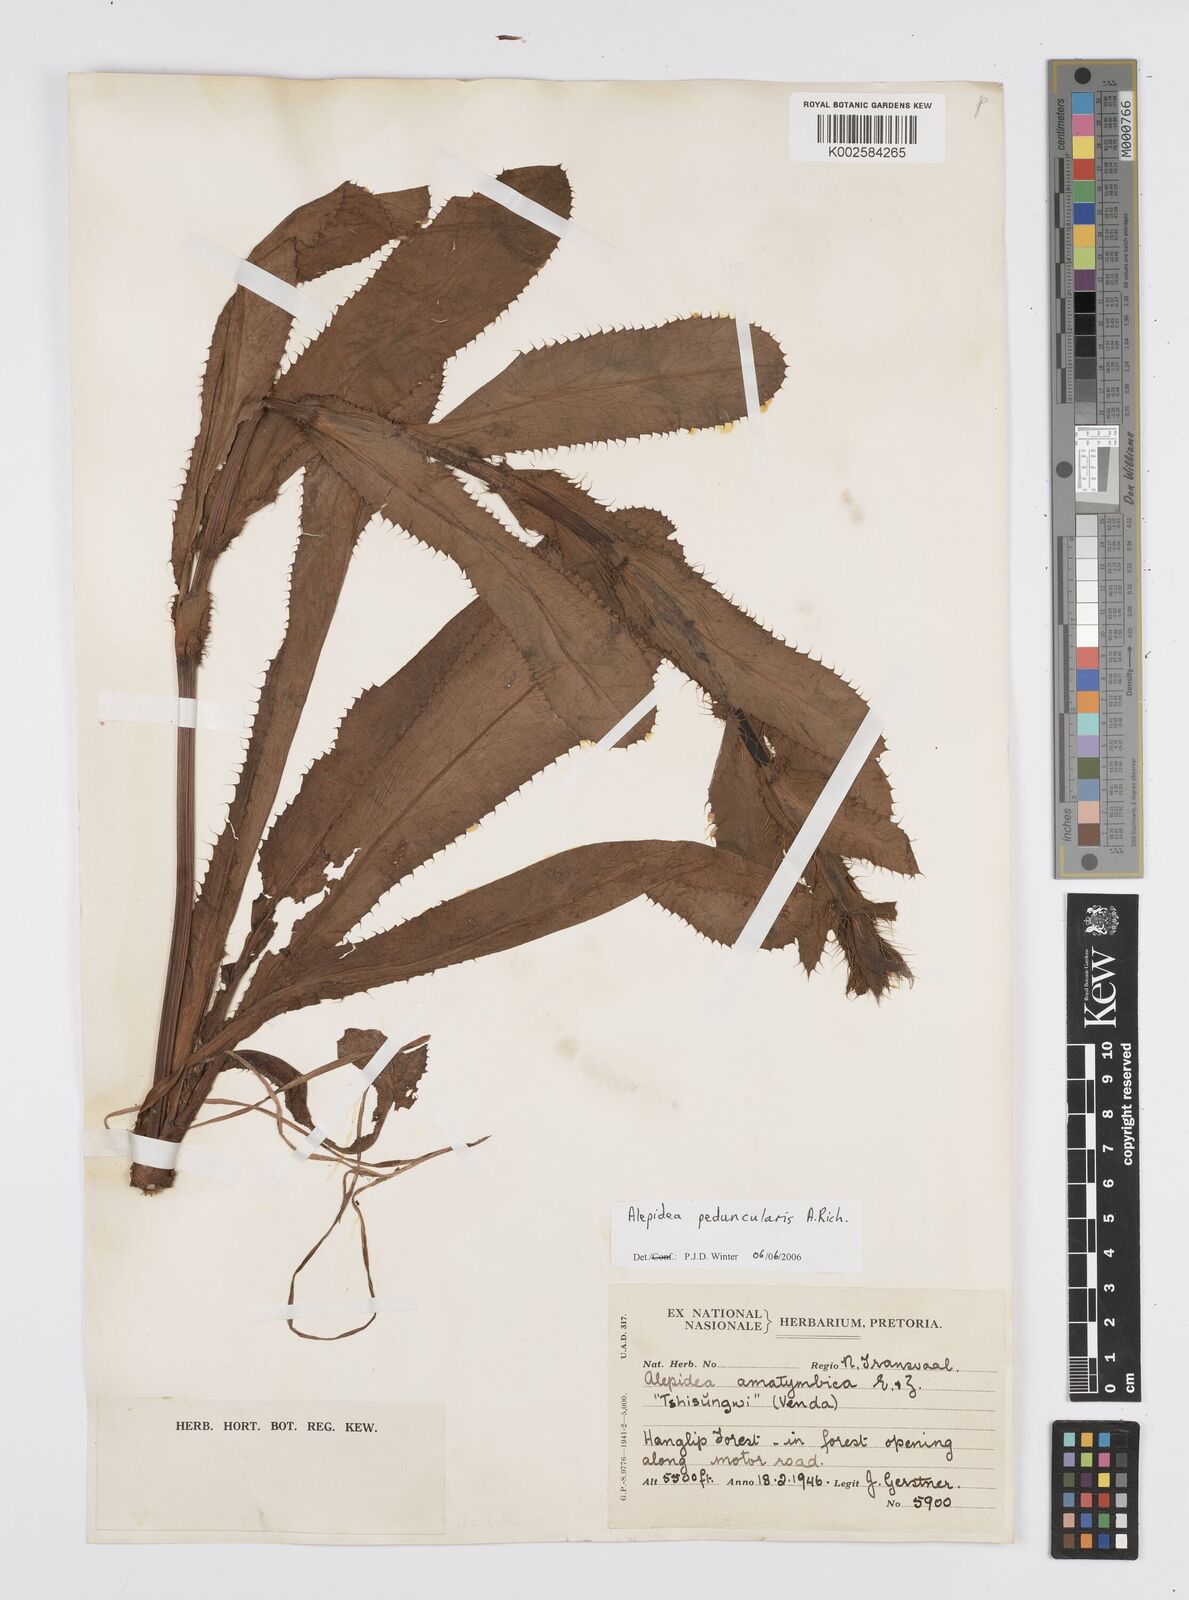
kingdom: Plantae
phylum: Tracheophyta
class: Magnoliopsida
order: Apiales
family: Apiaceae
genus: Alepidea
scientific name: Alepidea peduncularis
